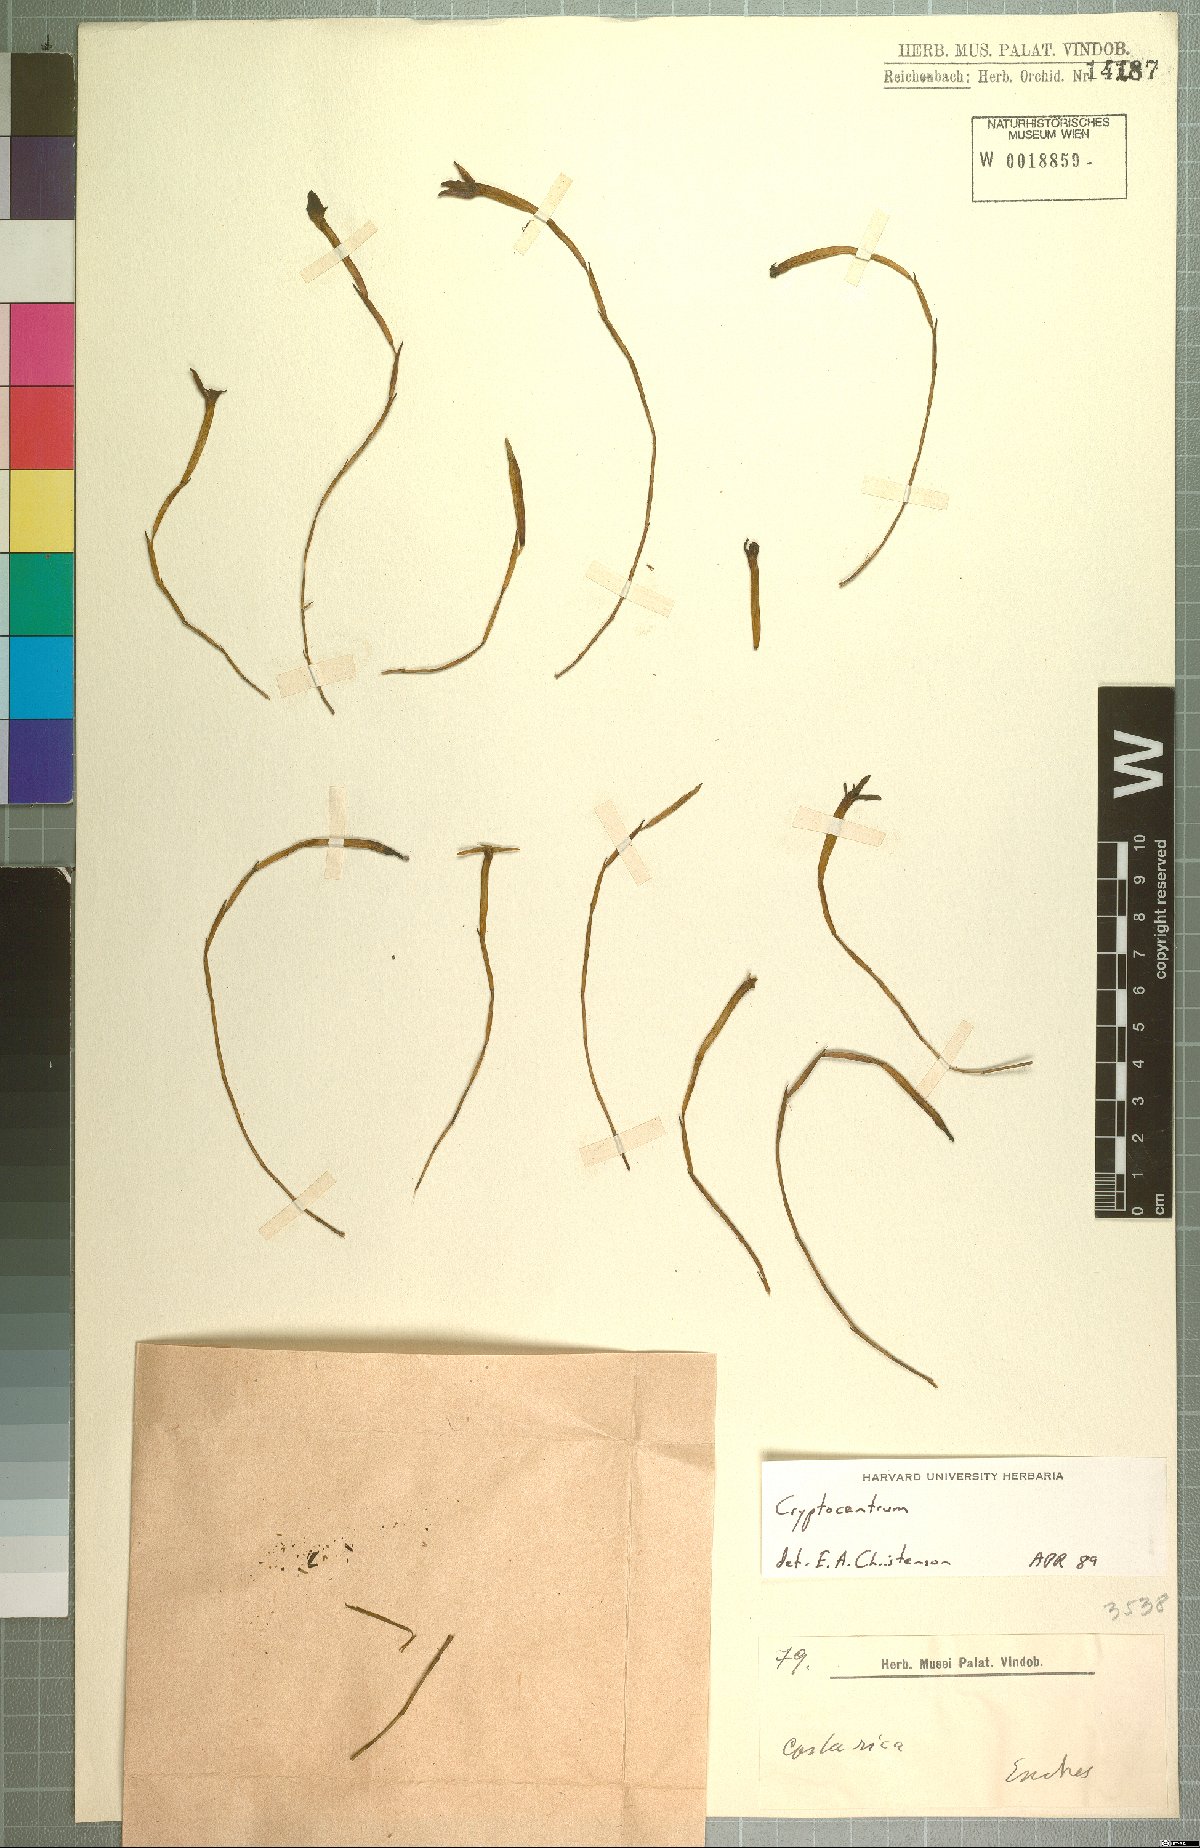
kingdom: Plantae
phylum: Tracheophyta
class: Liliopsida
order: Asparagales
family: Orchidaceae
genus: Maxillaria
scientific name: Maxillaria jacquelineana
